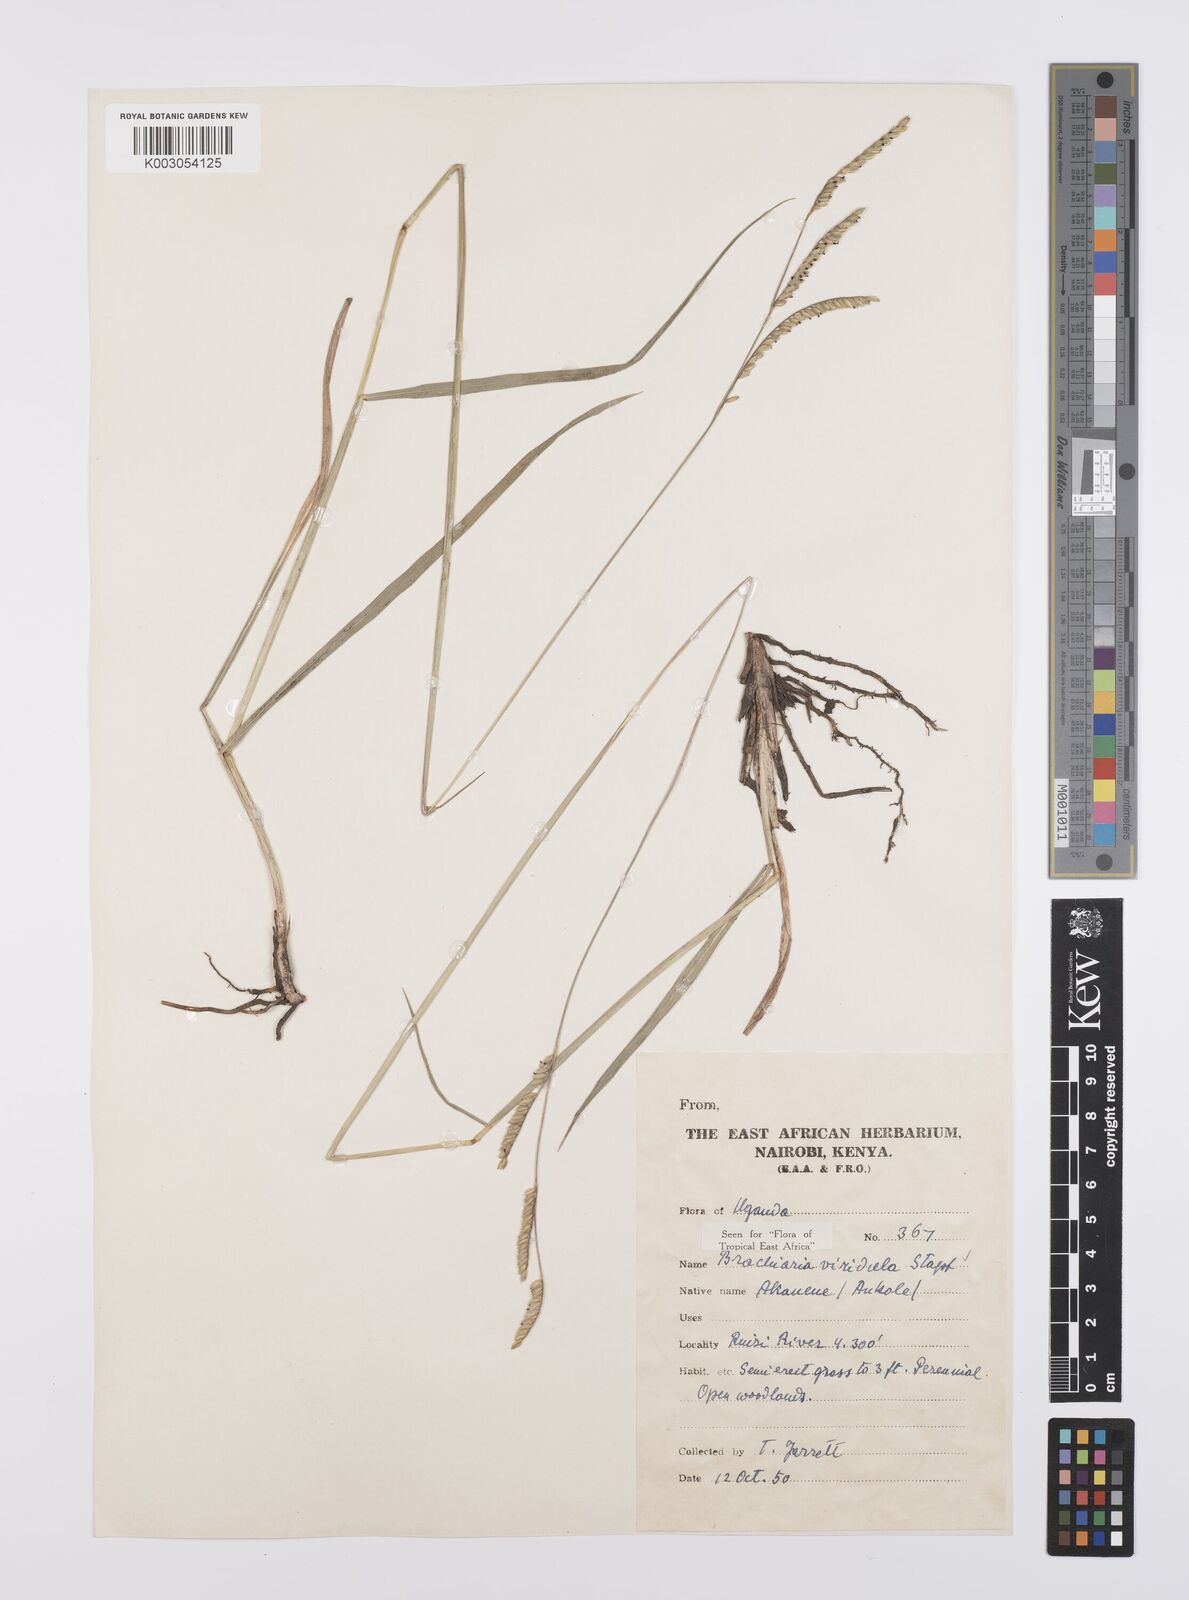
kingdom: Plantae
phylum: Tracheophyta
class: Liliopsida
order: Poales
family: Poaceae
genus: Urochloa
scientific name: Urochloa bovonei
